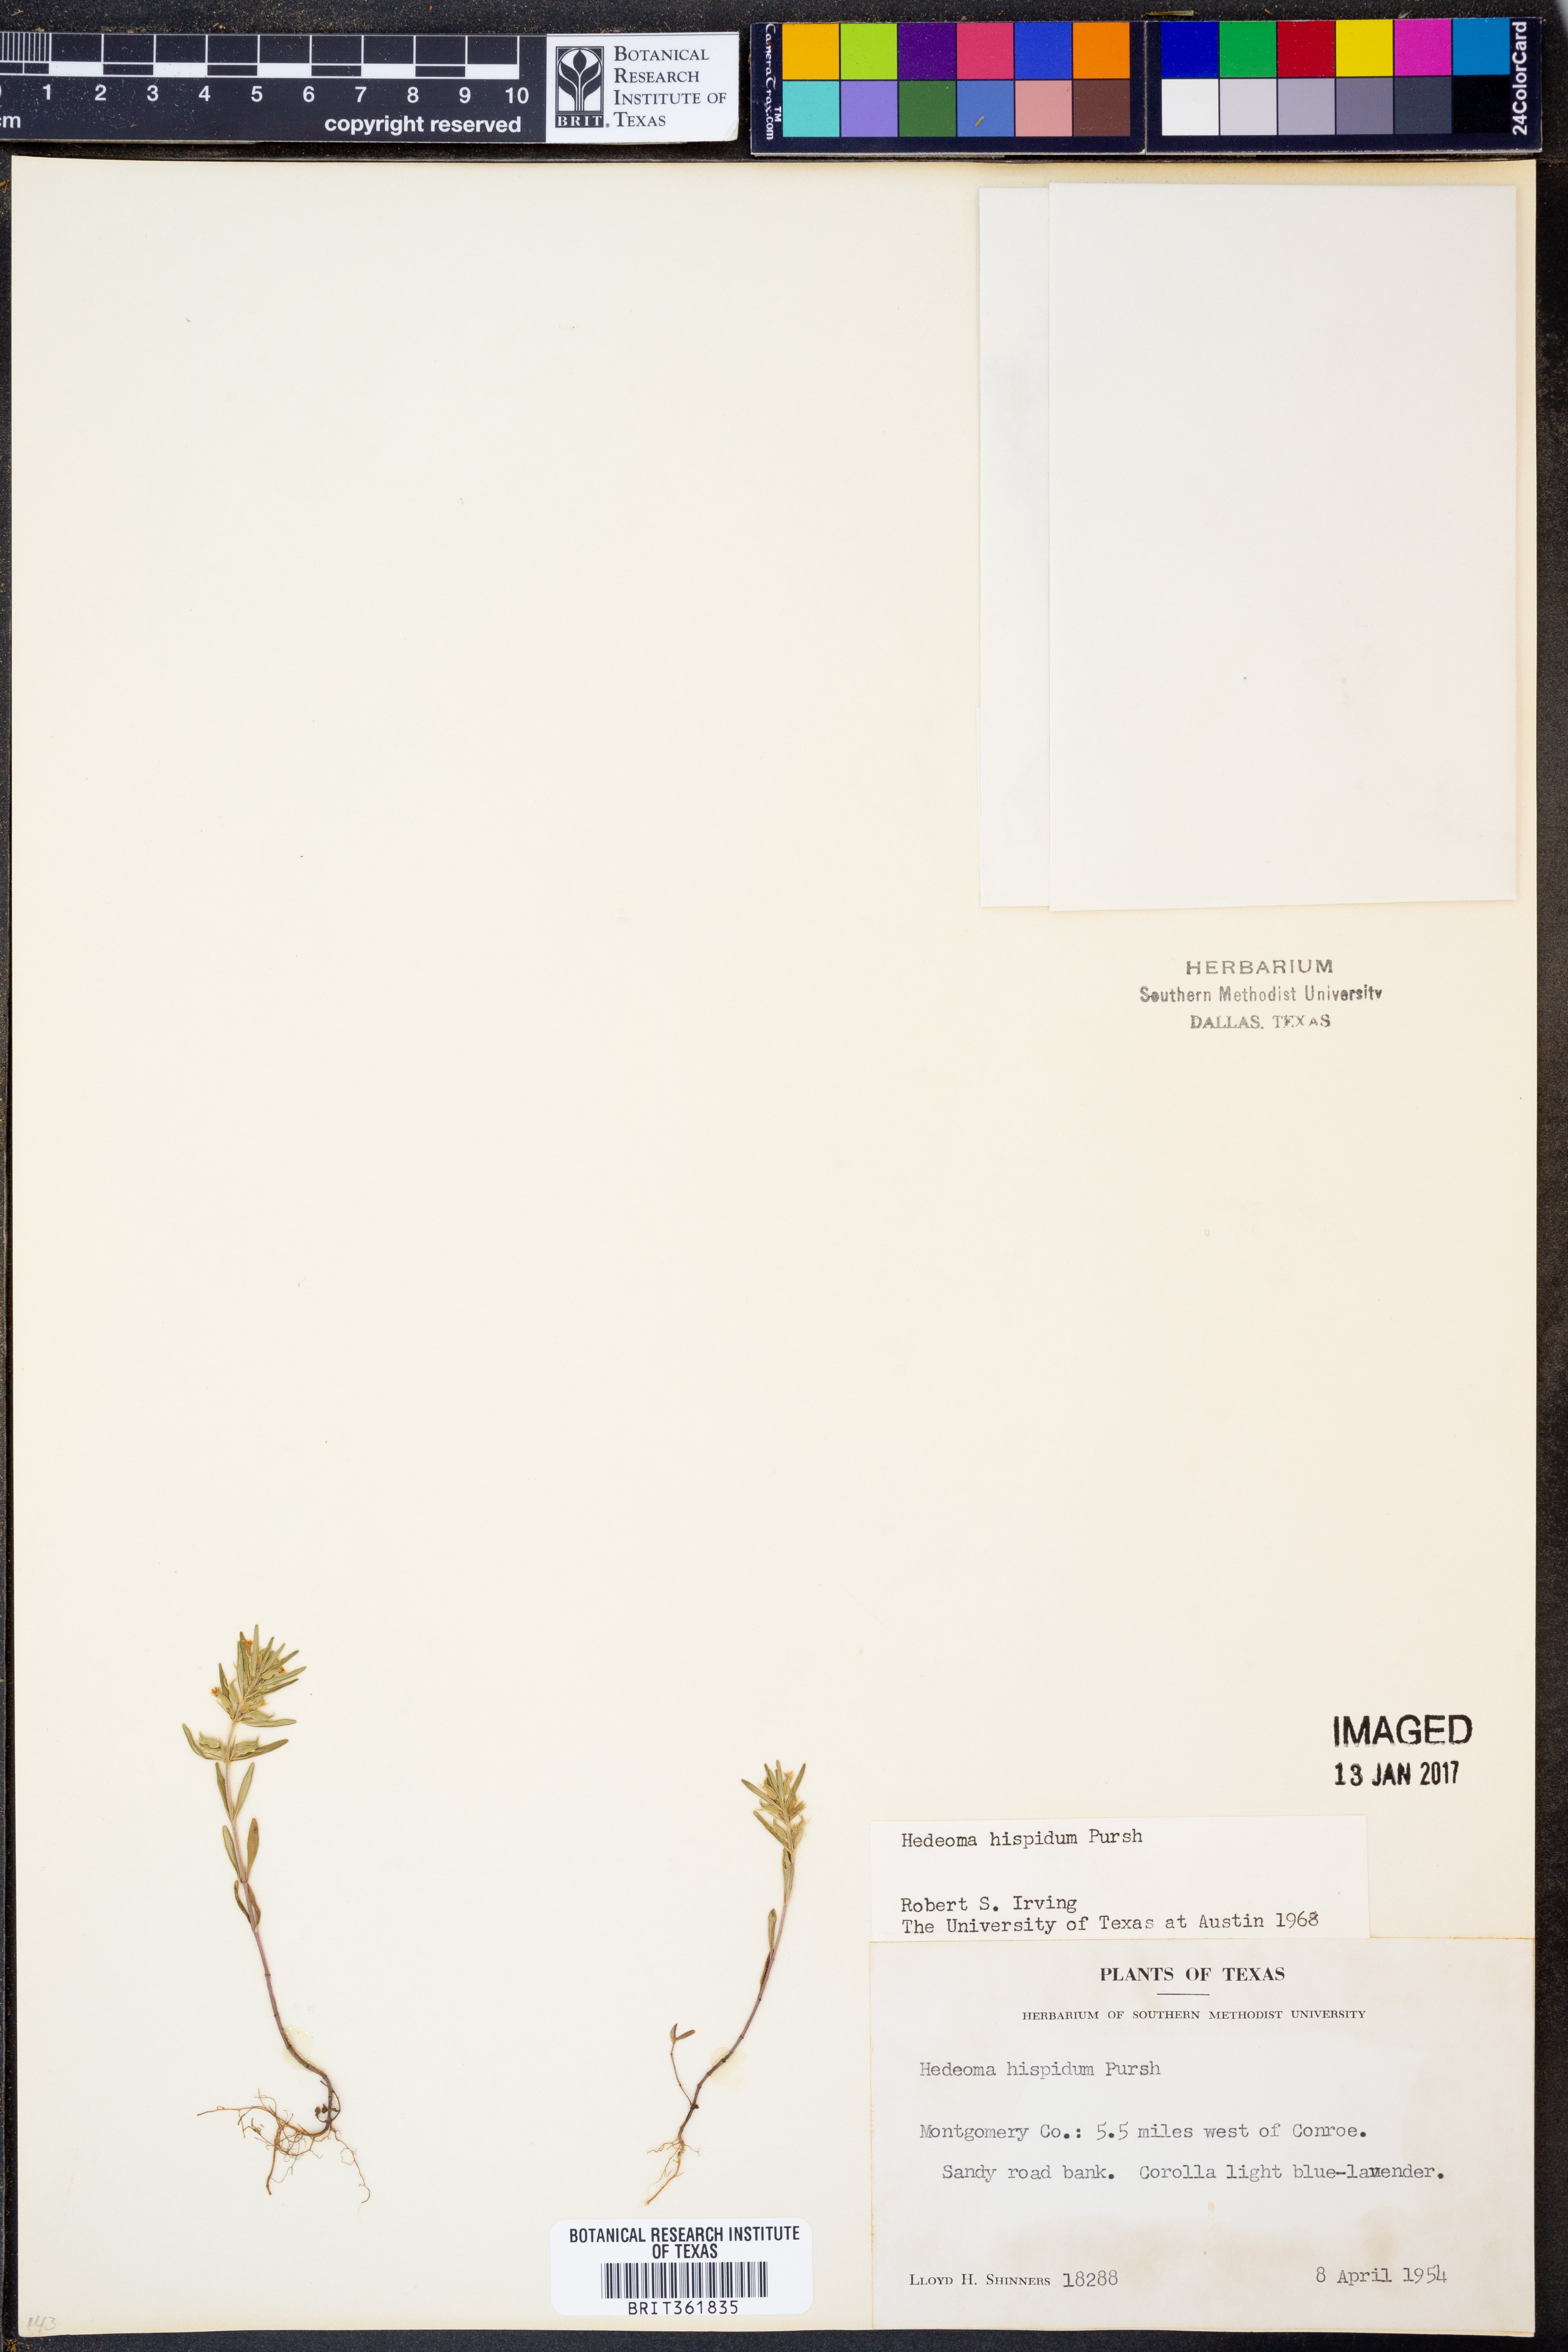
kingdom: Plantae
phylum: Tracheophyta
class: Magnoliopsida
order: Lamiales
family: Lamiaceae
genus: Hedeoma
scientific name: Hedeoma hispida
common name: Mock pennyroyal
